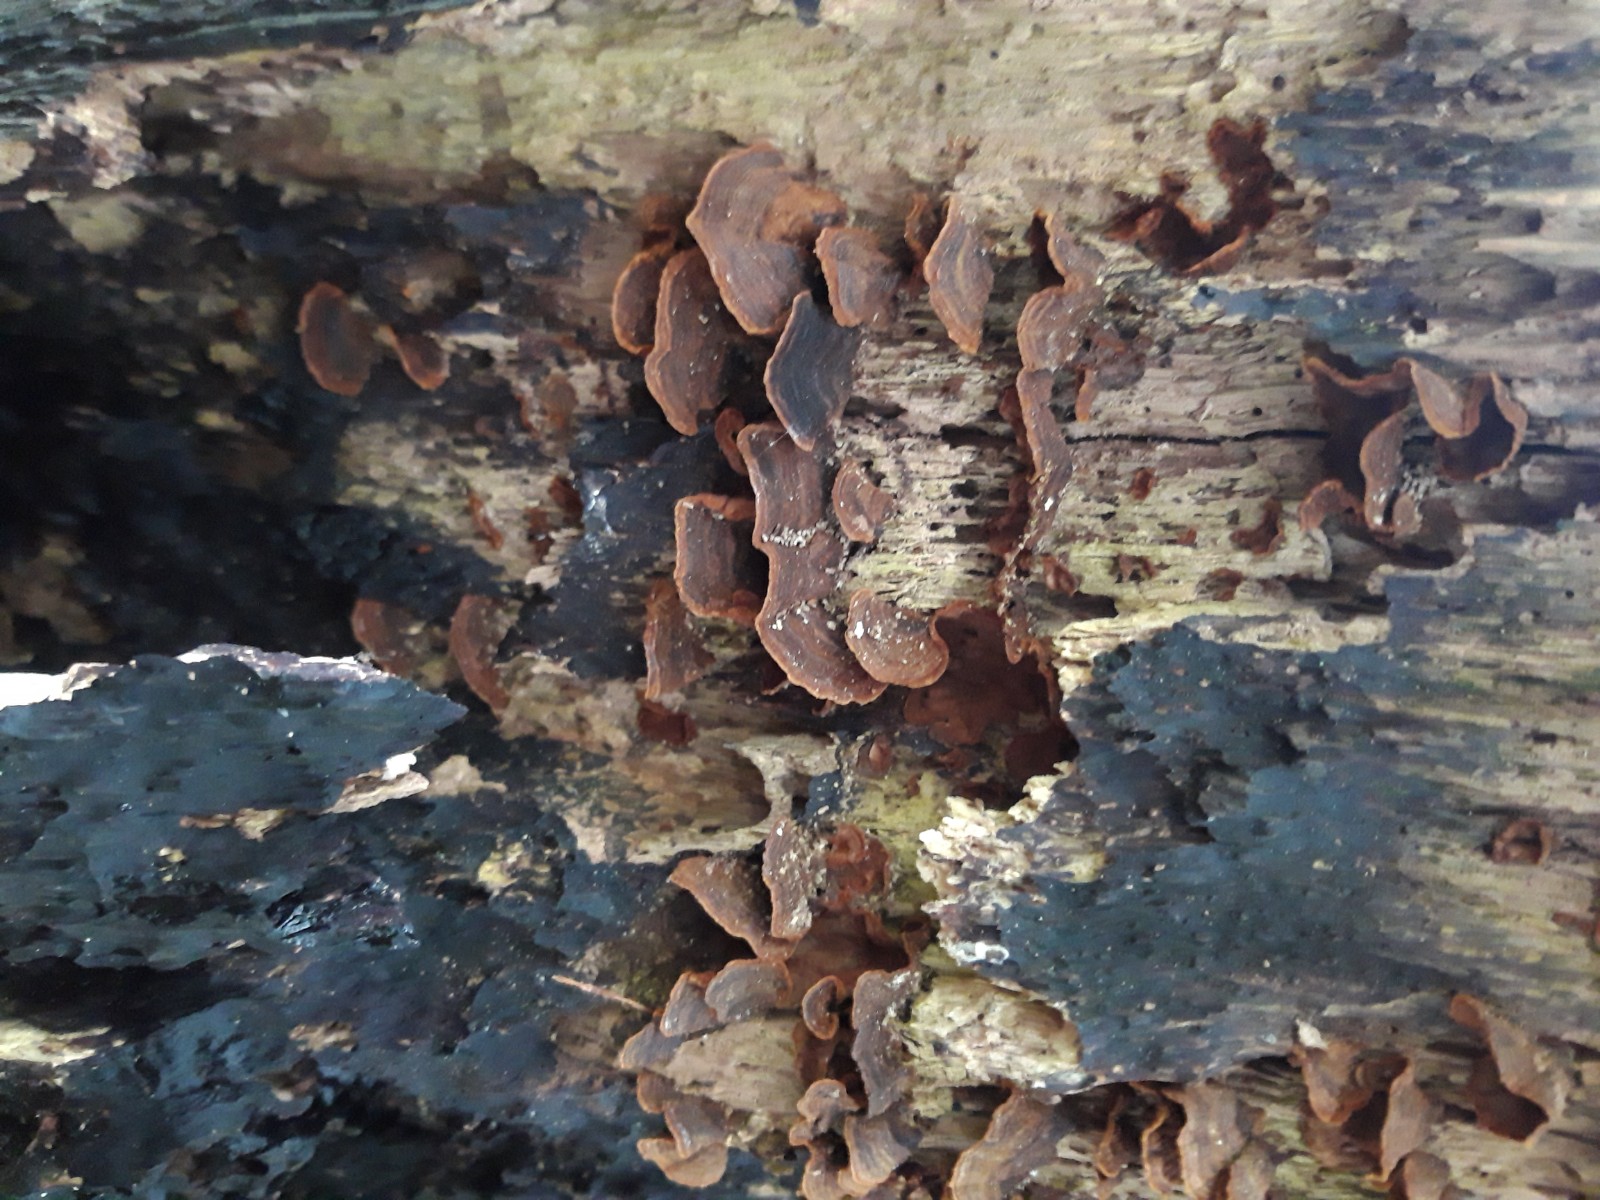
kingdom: Fungi
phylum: Basidiomycota
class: Agaricomycetes
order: Hymenochaetales
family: Hymenochaetaceae
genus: Hymenochaete
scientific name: Hymenochaete rubiginosa
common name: stiv ruslædersvamp
